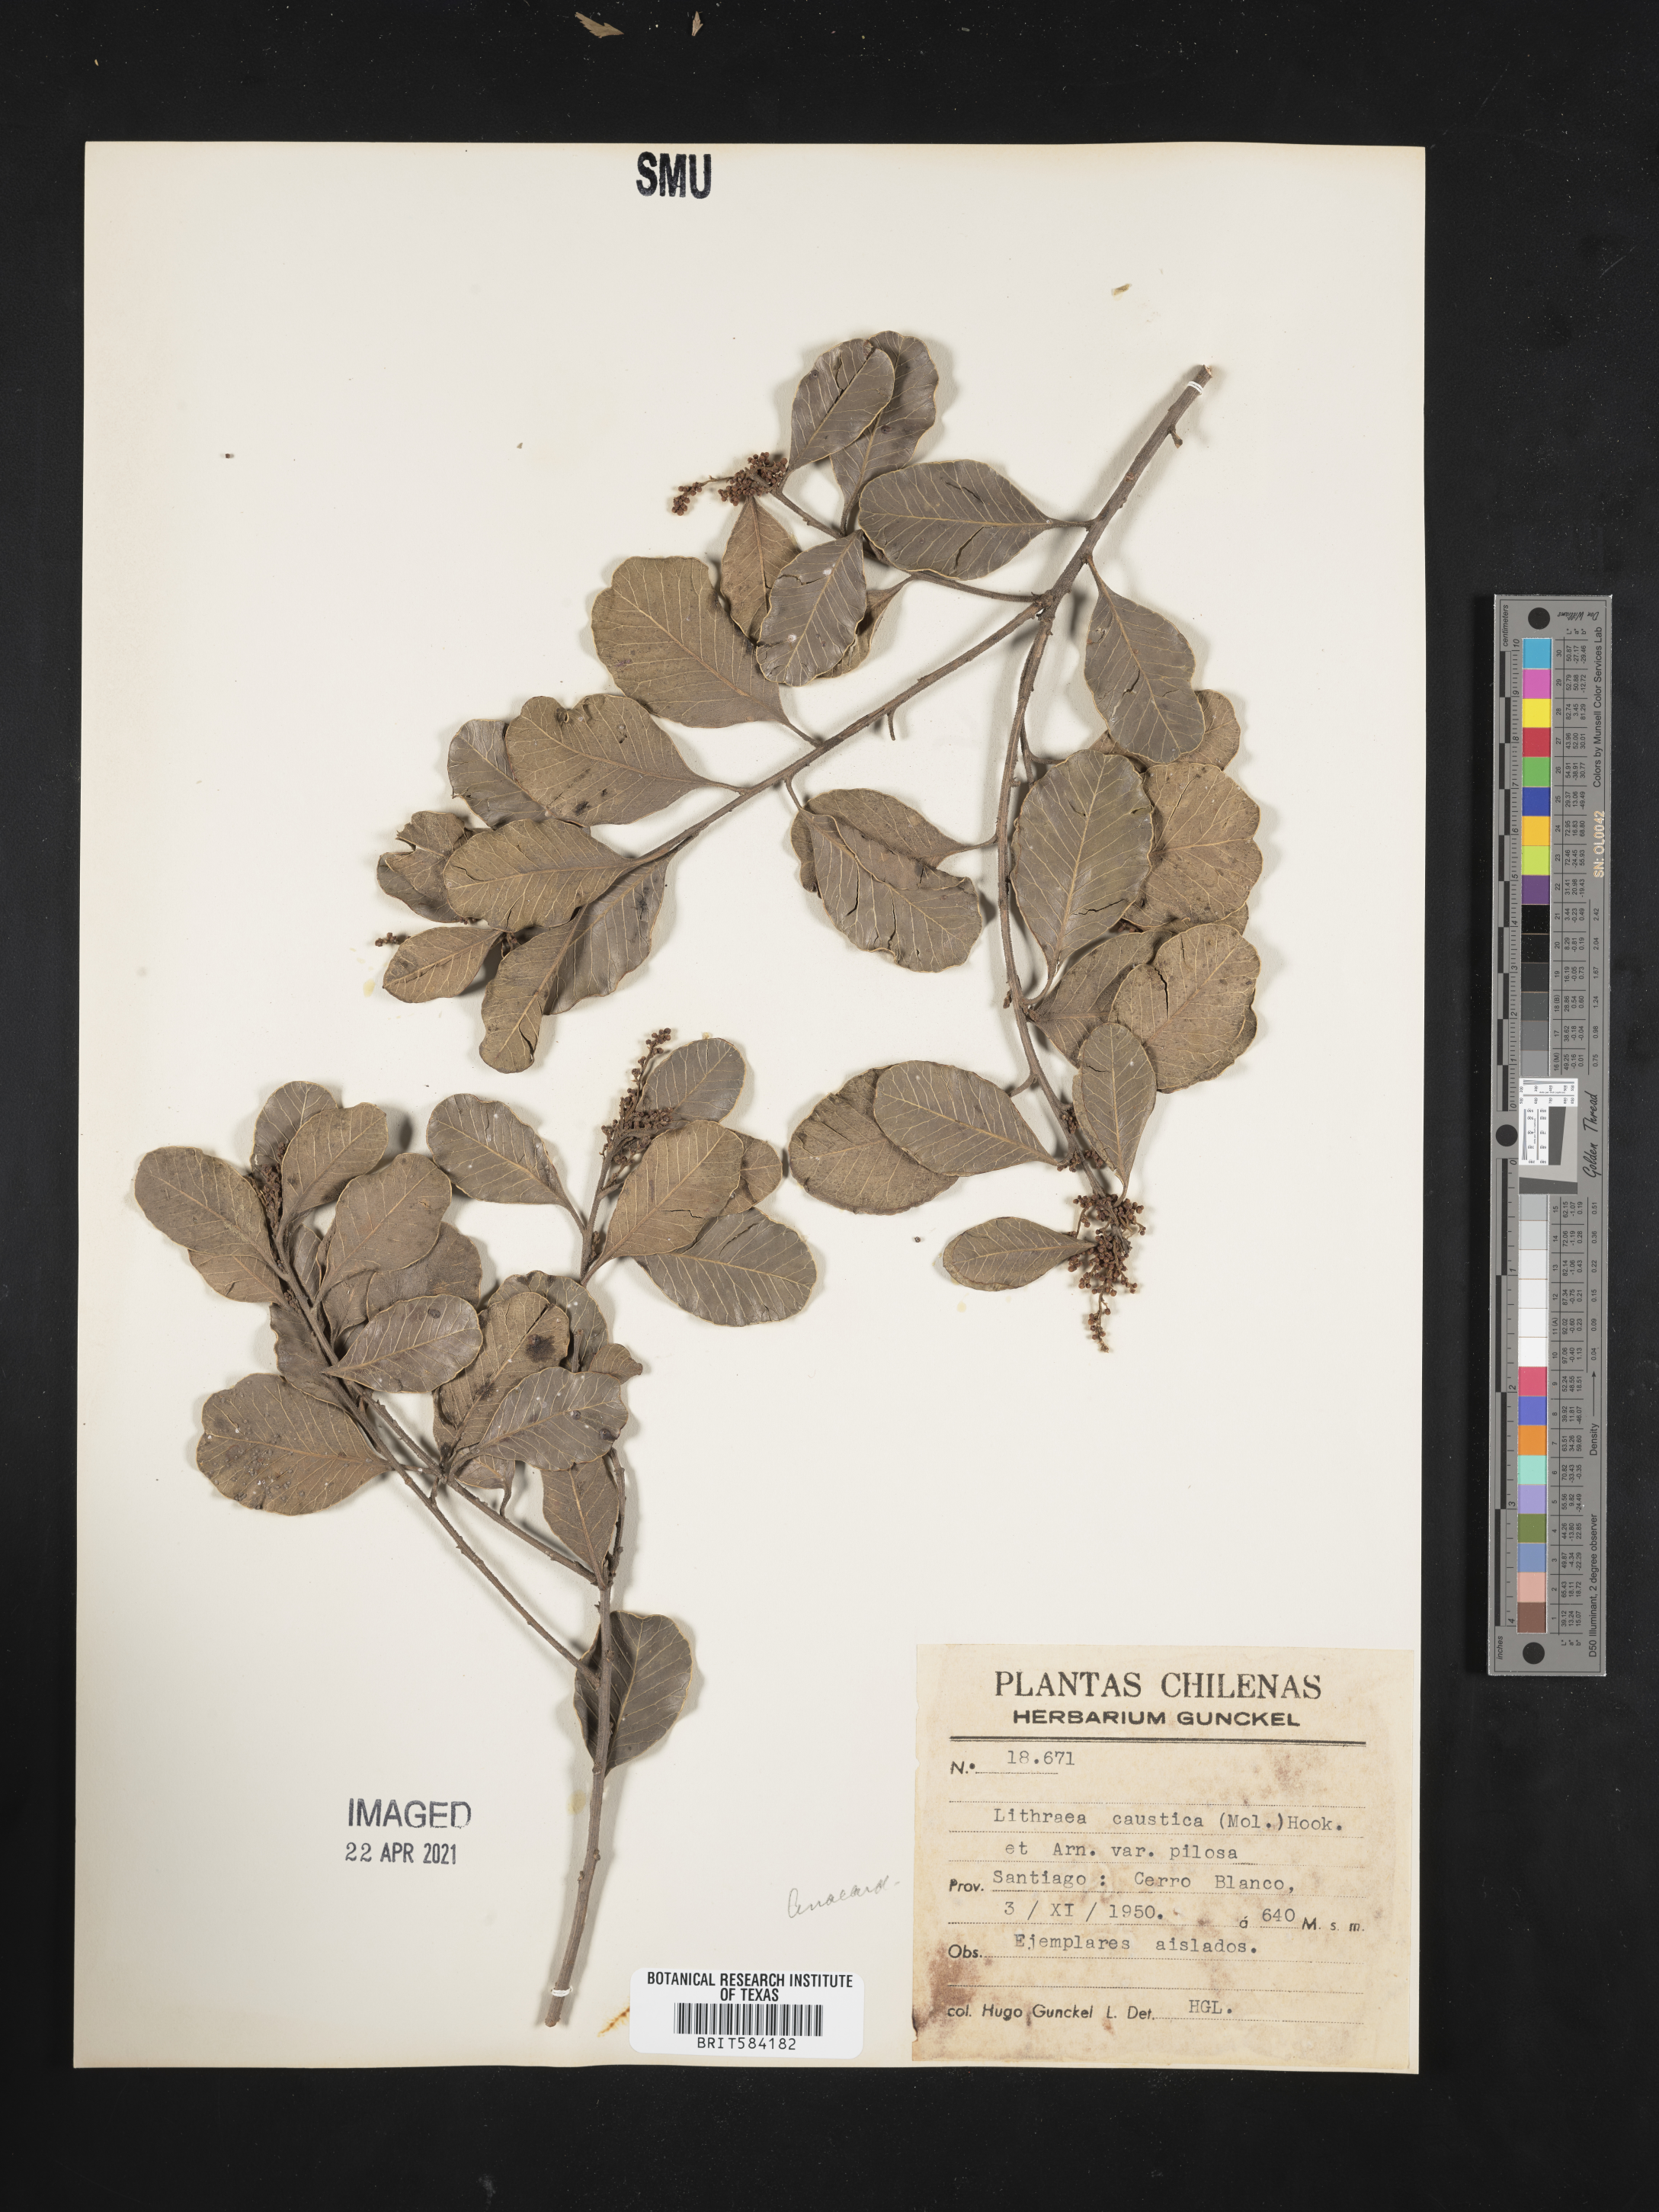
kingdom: Plantae
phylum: Tracheophyta
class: Magnoliopsida
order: Sapindales
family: Anacardiaceae
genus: Lithraea
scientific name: Lithraea caustica
